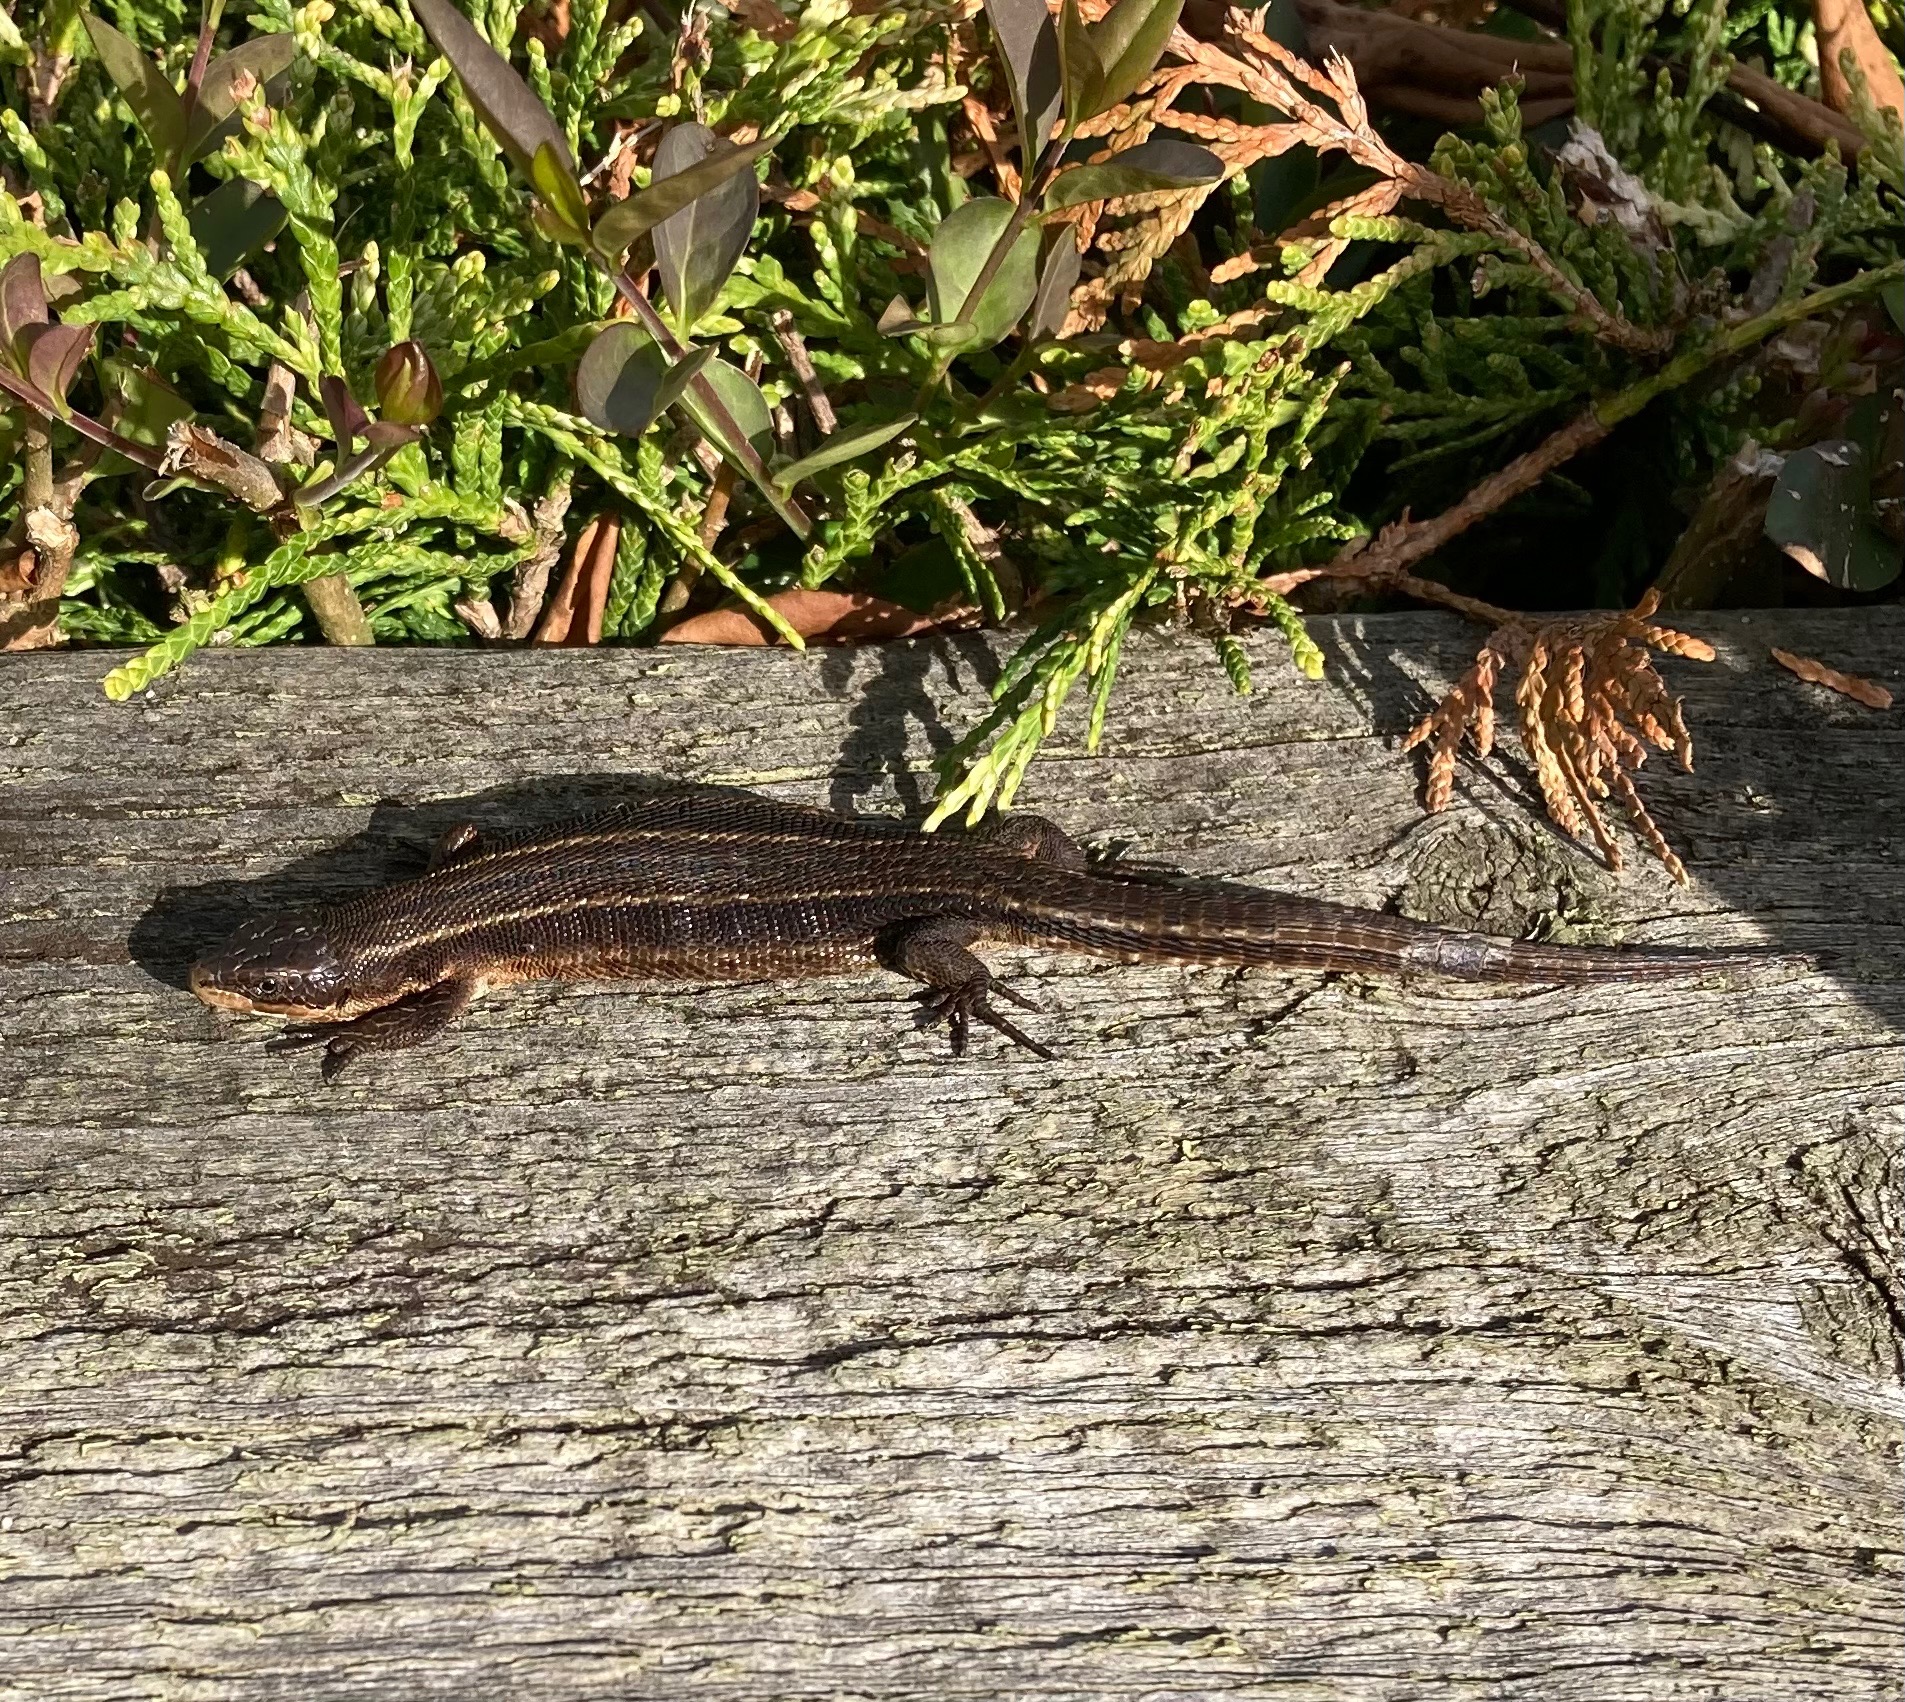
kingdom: Animalia
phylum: Chordata
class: Squamata
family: Lacertidae
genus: Zootoca
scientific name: Zootoca vivipara
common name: Skovfirben
